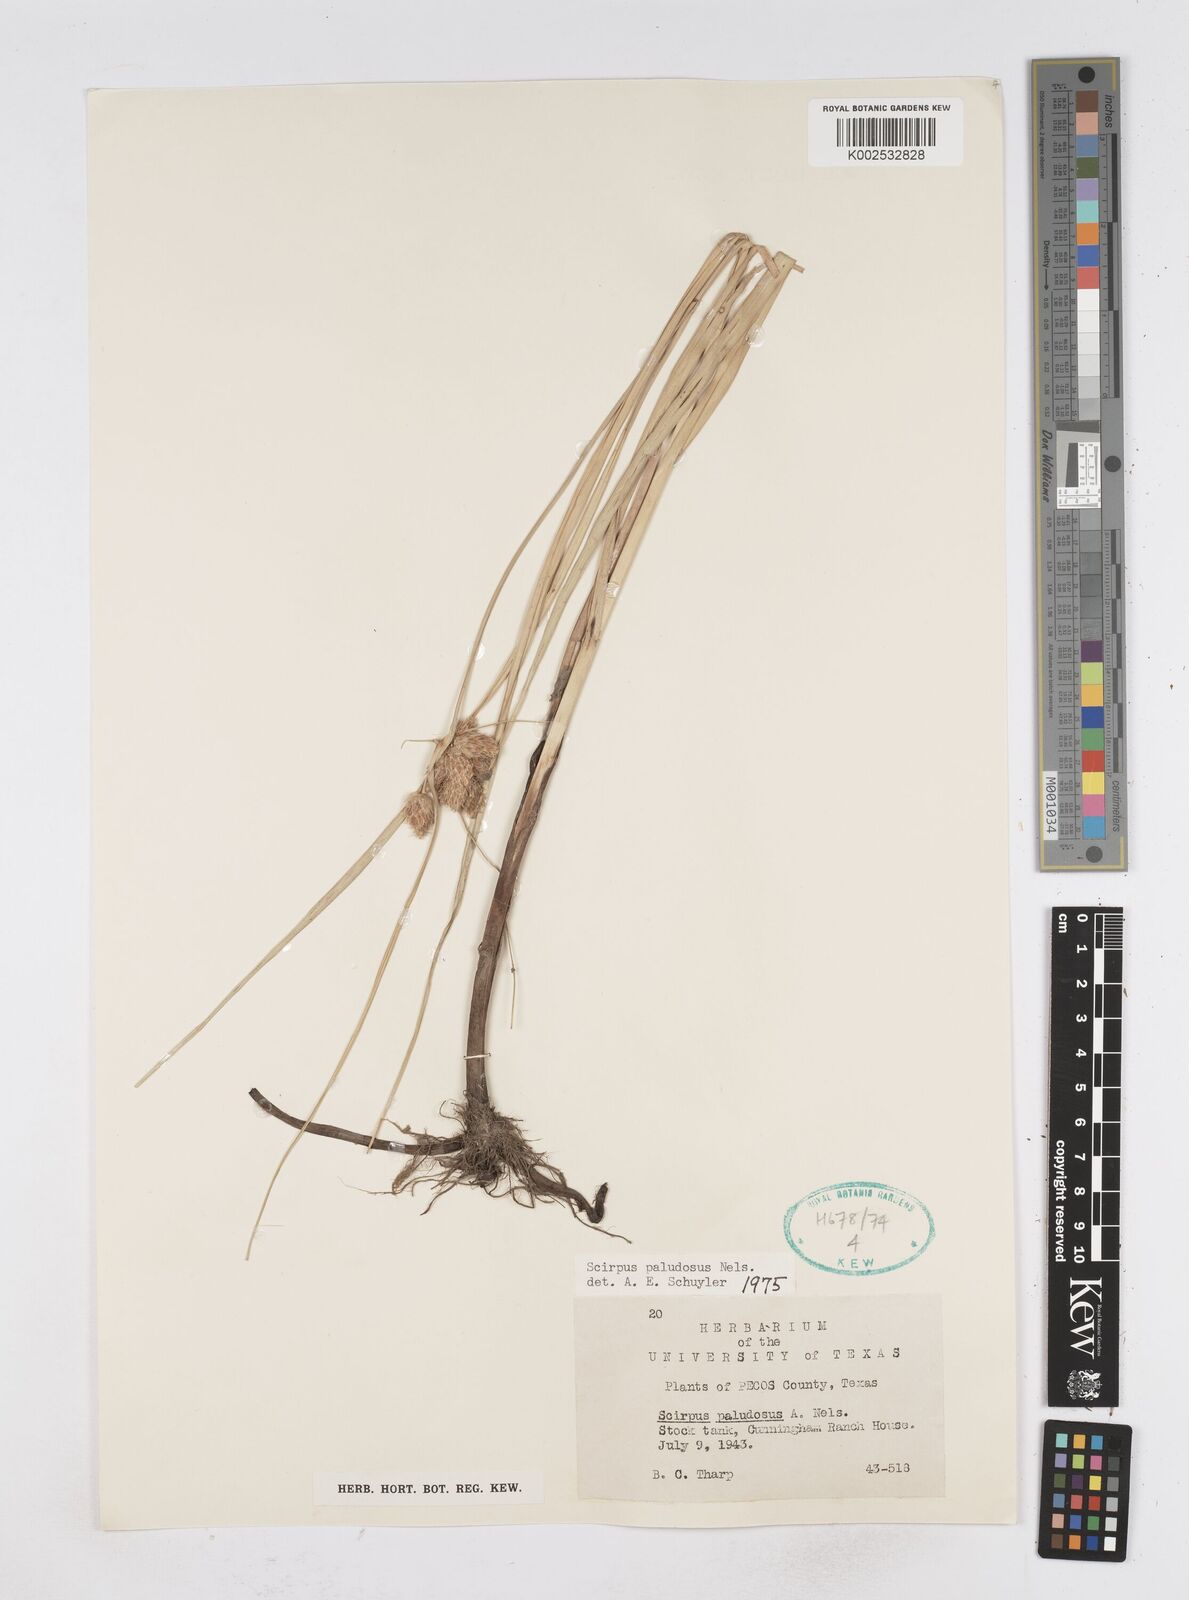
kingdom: Plantae
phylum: Tracheophyta
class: Liliopsida
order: Poales
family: Cyperaceae
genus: Bolboschoenus
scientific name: Bolboschoenus maritimus
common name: Sea club-rush
